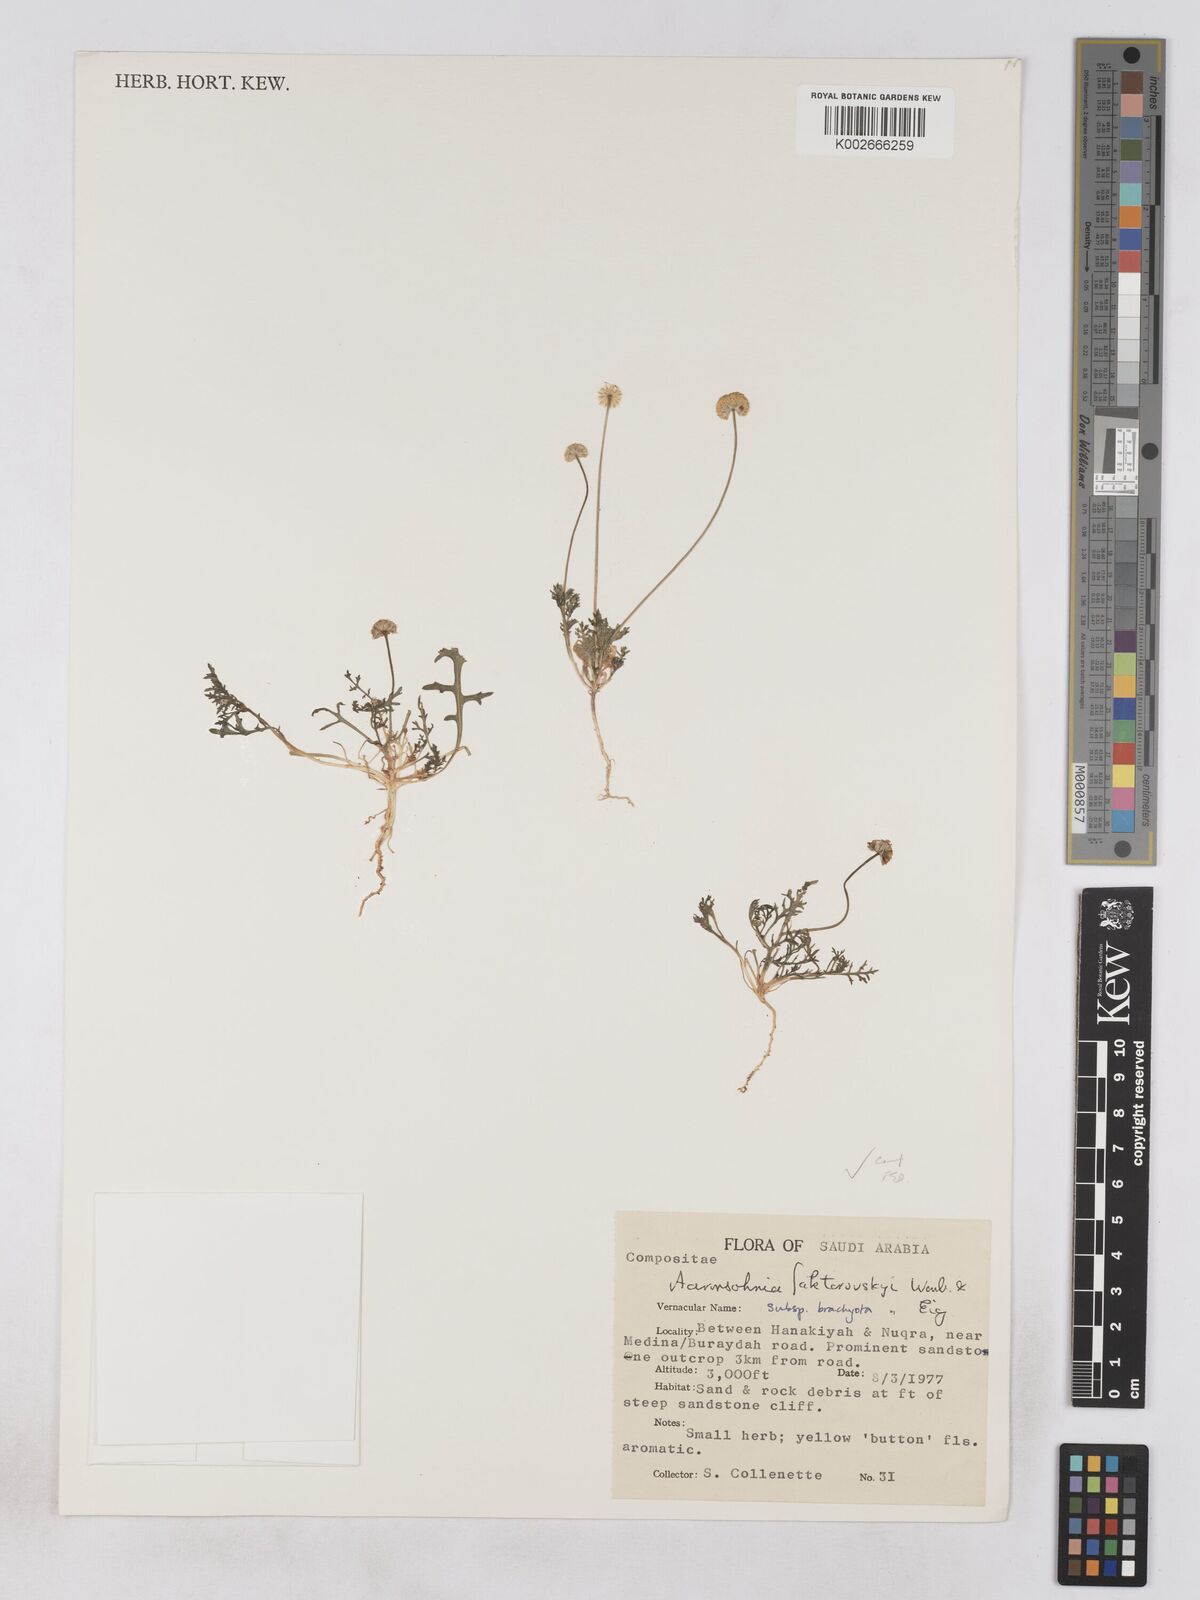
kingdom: Plantae
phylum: Tracheophyta
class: Magnoliopsida
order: Asterales
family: Asteraceae
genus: Otoglyphis
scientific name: Otoglyphis factorovskyi
